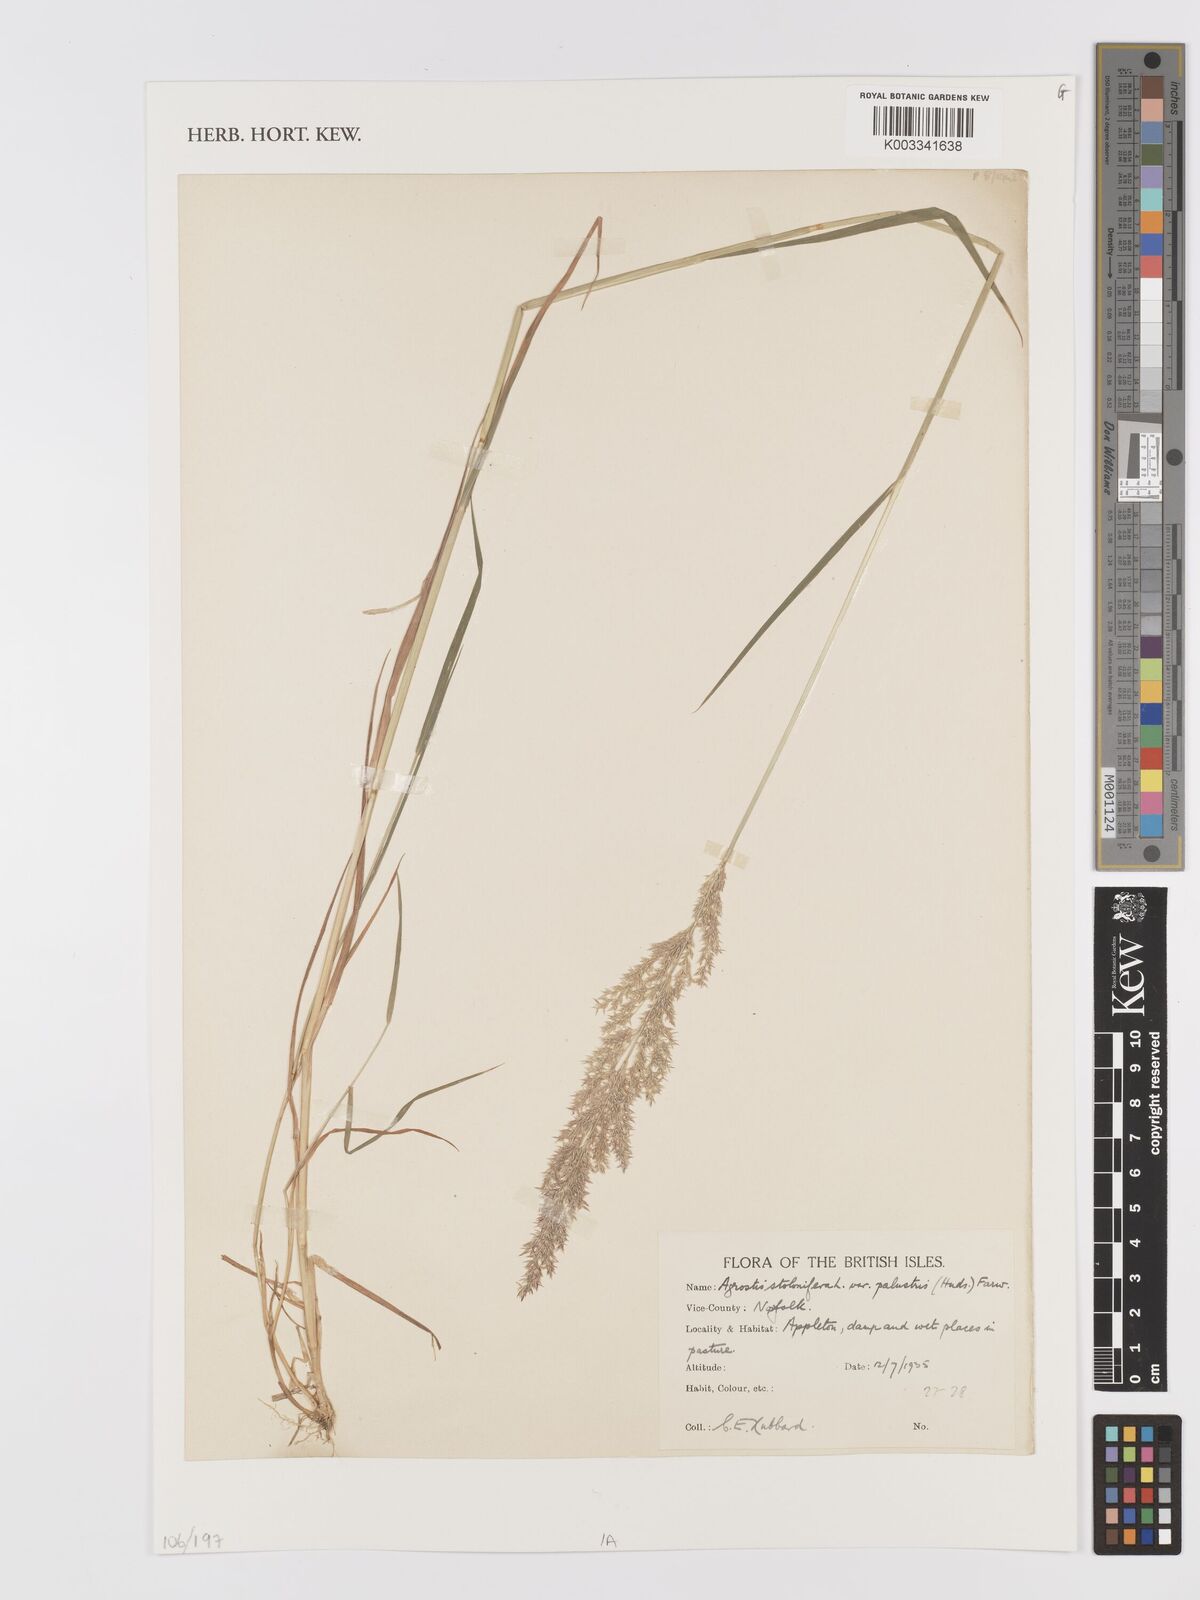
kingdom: Plantae
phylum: Tracheophyta
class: Liliopsida
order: Poales
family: Poaceae
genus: Agrostis
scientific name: Agrostis stolonifera
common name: Creeping bentgrass
